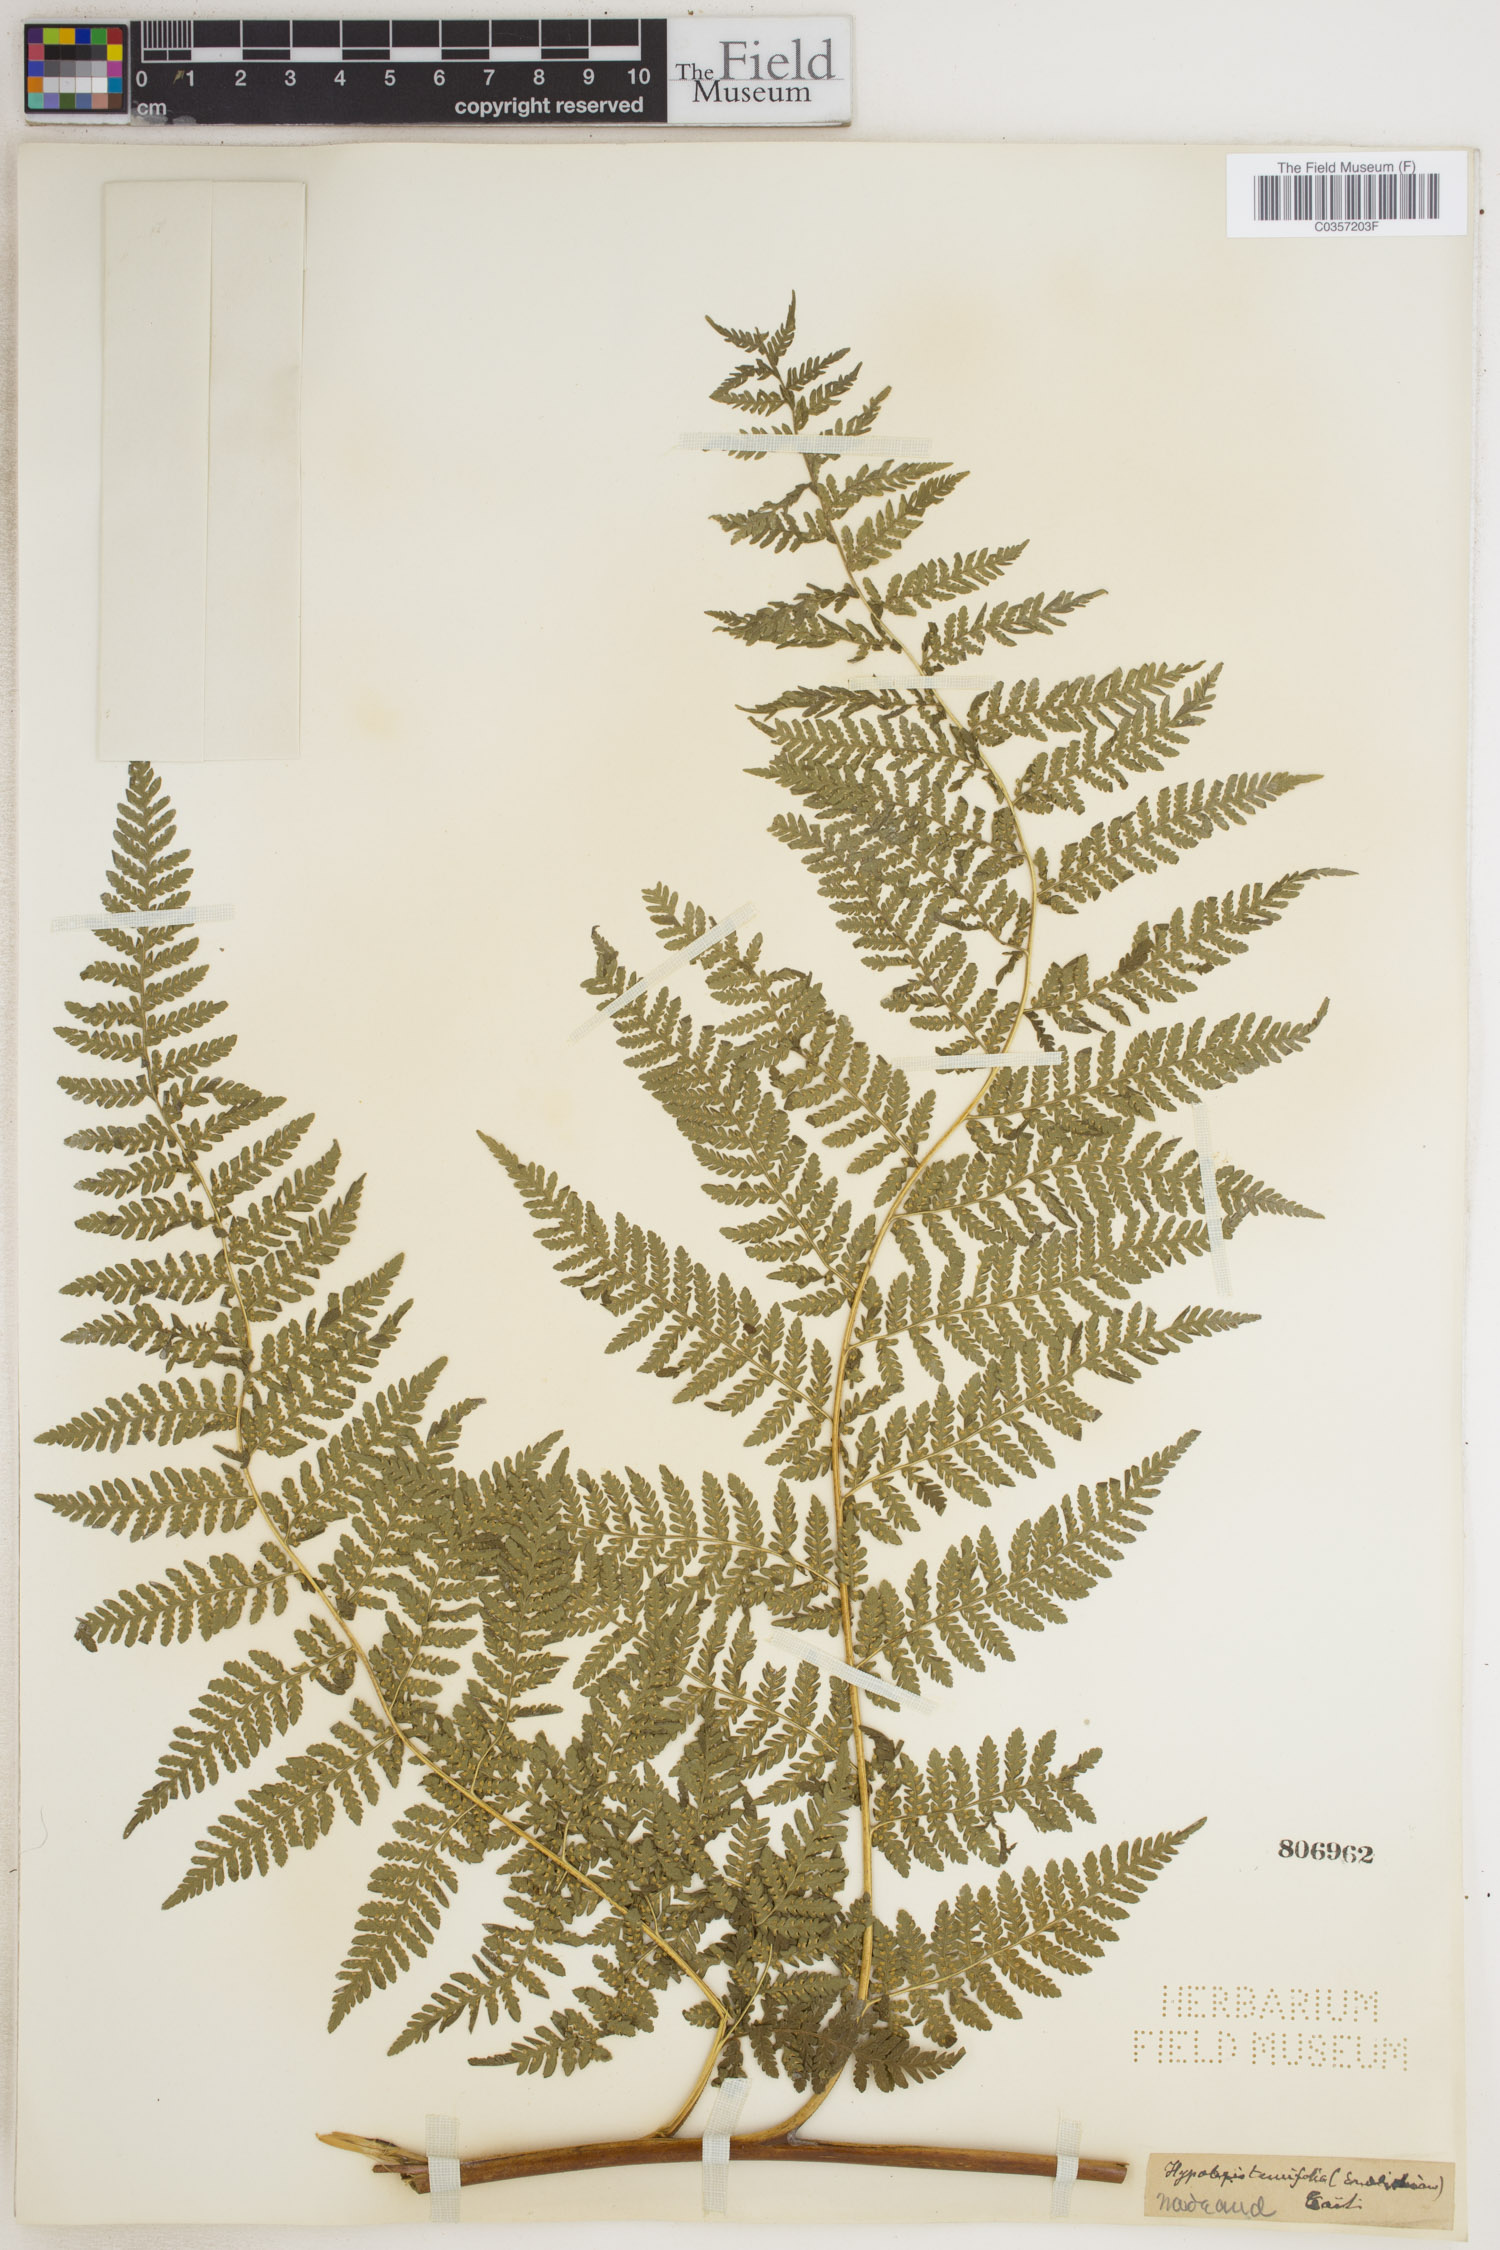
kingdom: Plantae
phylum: Tracheophyta
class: Polypodiopsida
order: Polypodiales
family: Dennstaedtiaceae
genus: Hypolepis
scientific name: Hypolepis tenuifolia
